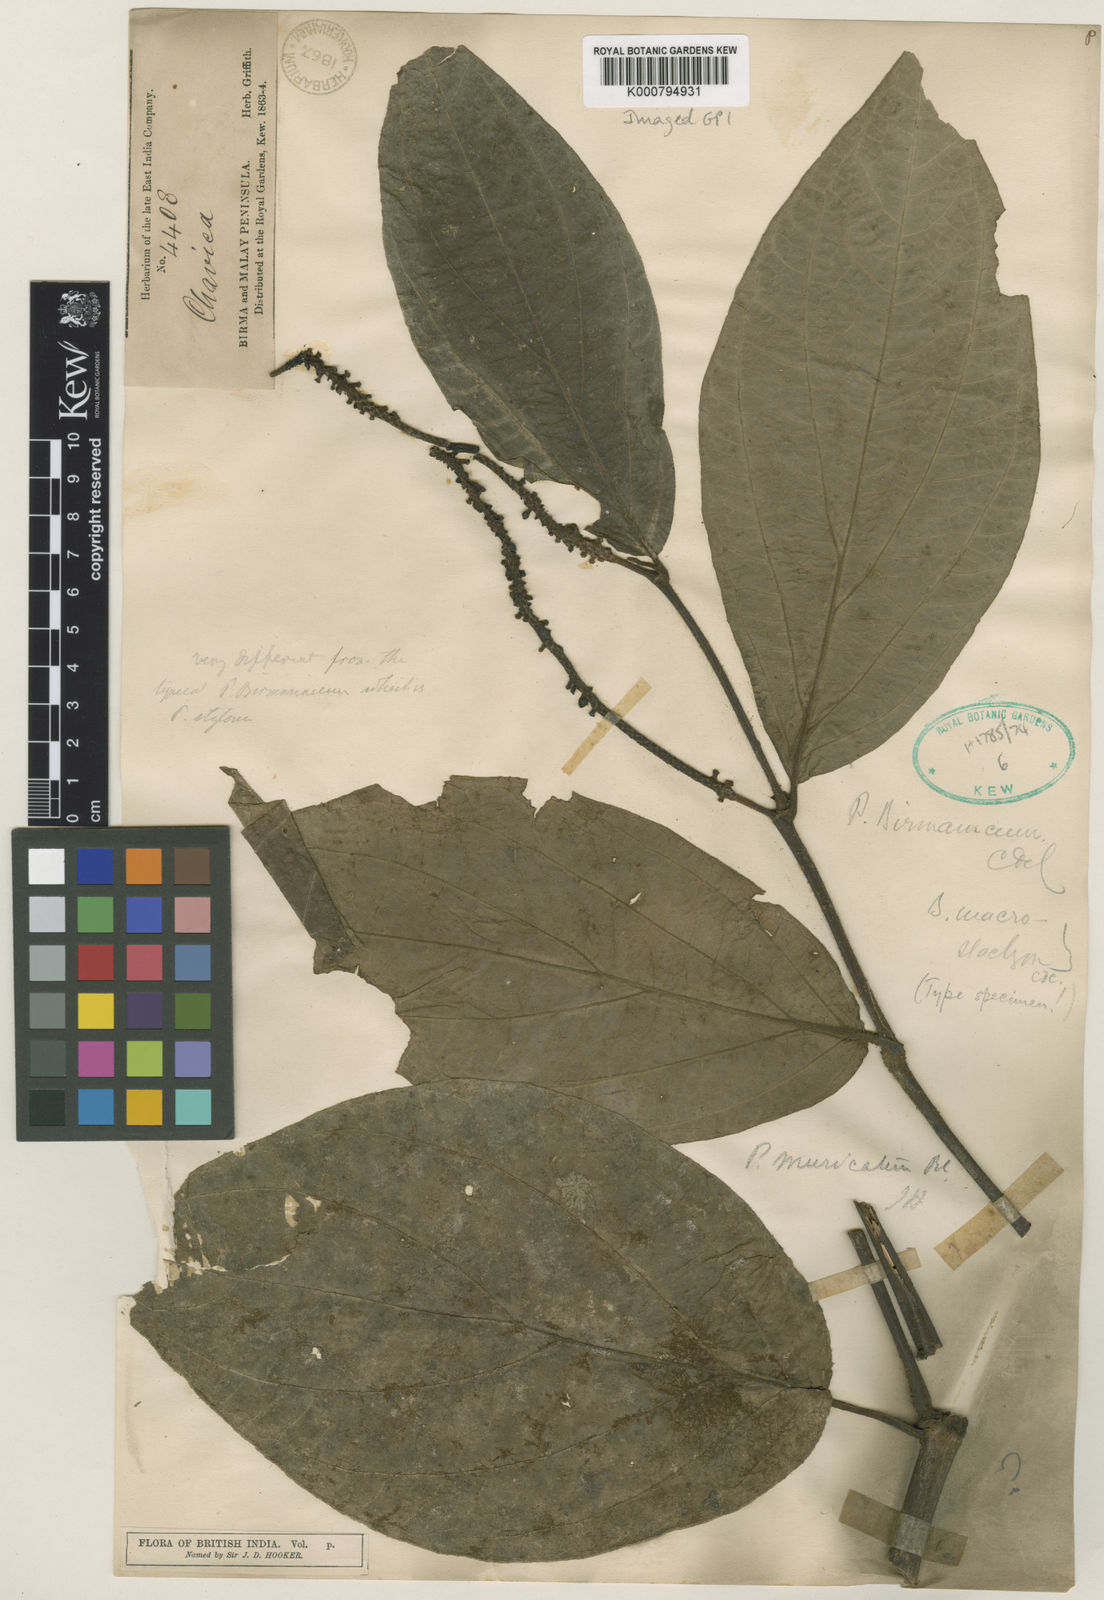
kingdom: Plantae
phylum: Tracheophyta
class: Magnoliopsida
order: Piperales
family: Piperaceae
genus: Piper
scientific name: Piper muricatum
